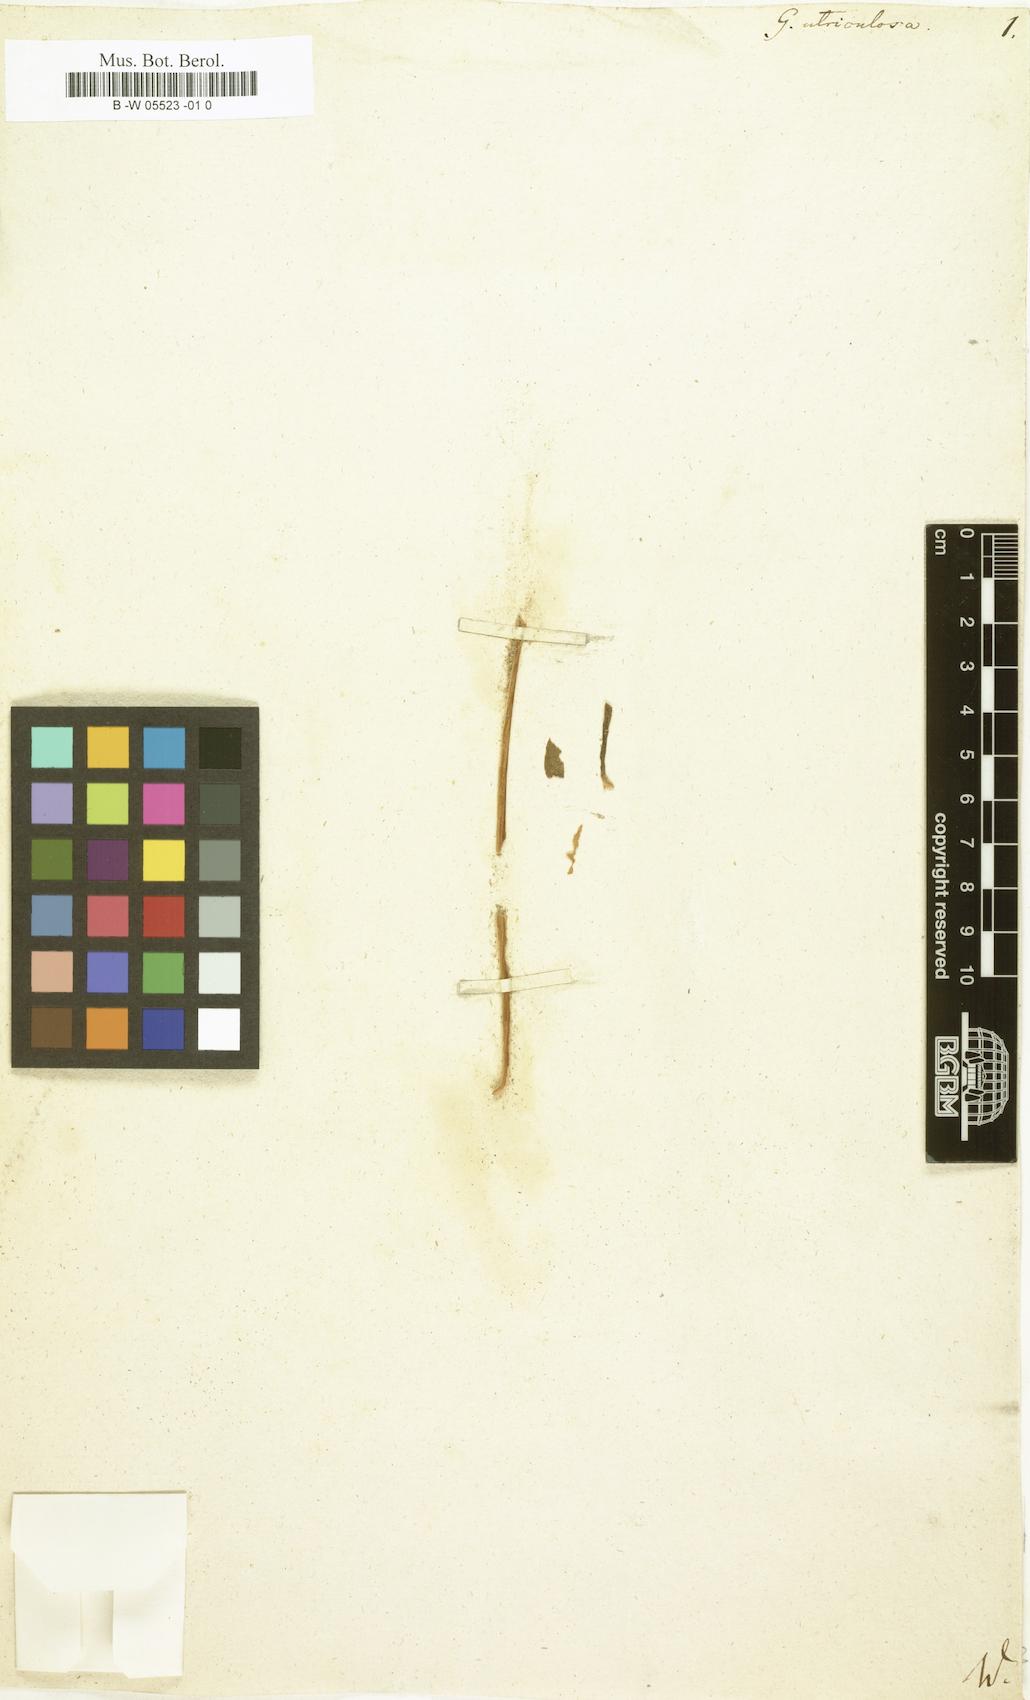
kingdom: Plantae
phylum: Tracheophyta
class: Magnoliopsida
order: Gentianales
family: Gentianaceae
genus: Gentiana
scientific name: Gentiana utriculosa
